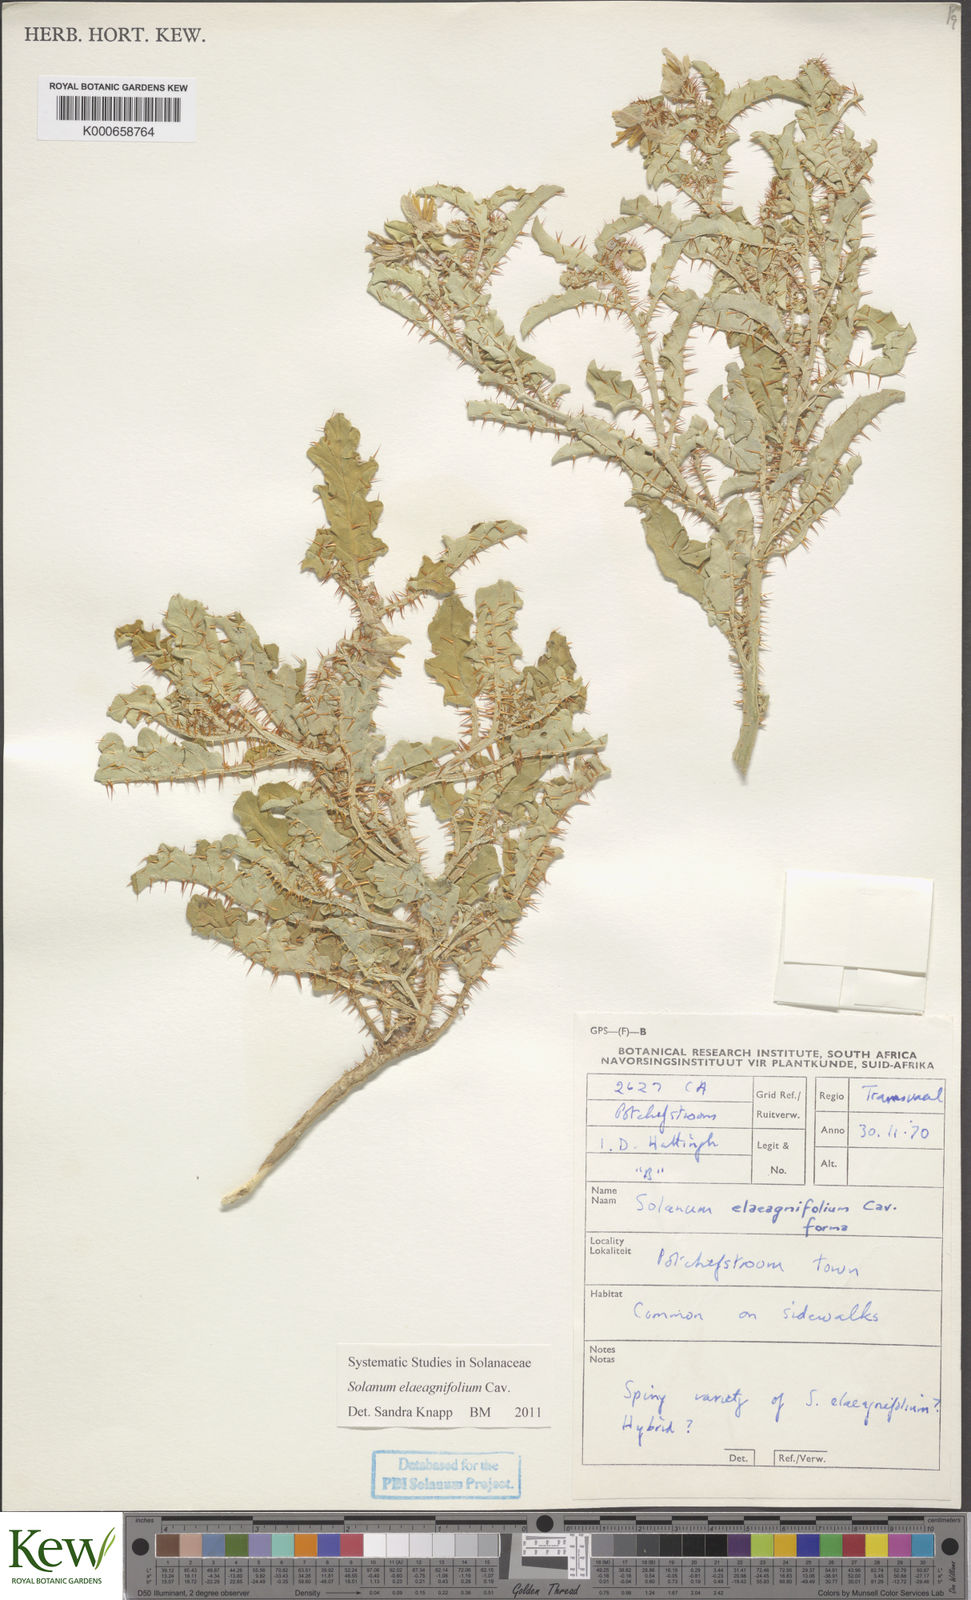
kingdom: Plantae
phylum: Tracheophyta
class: Magnoliopsida
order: Solanales
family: Solanaceae
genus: Solanum
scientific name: Solanum elaeagnifolium
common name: Silverleaf nightshade
